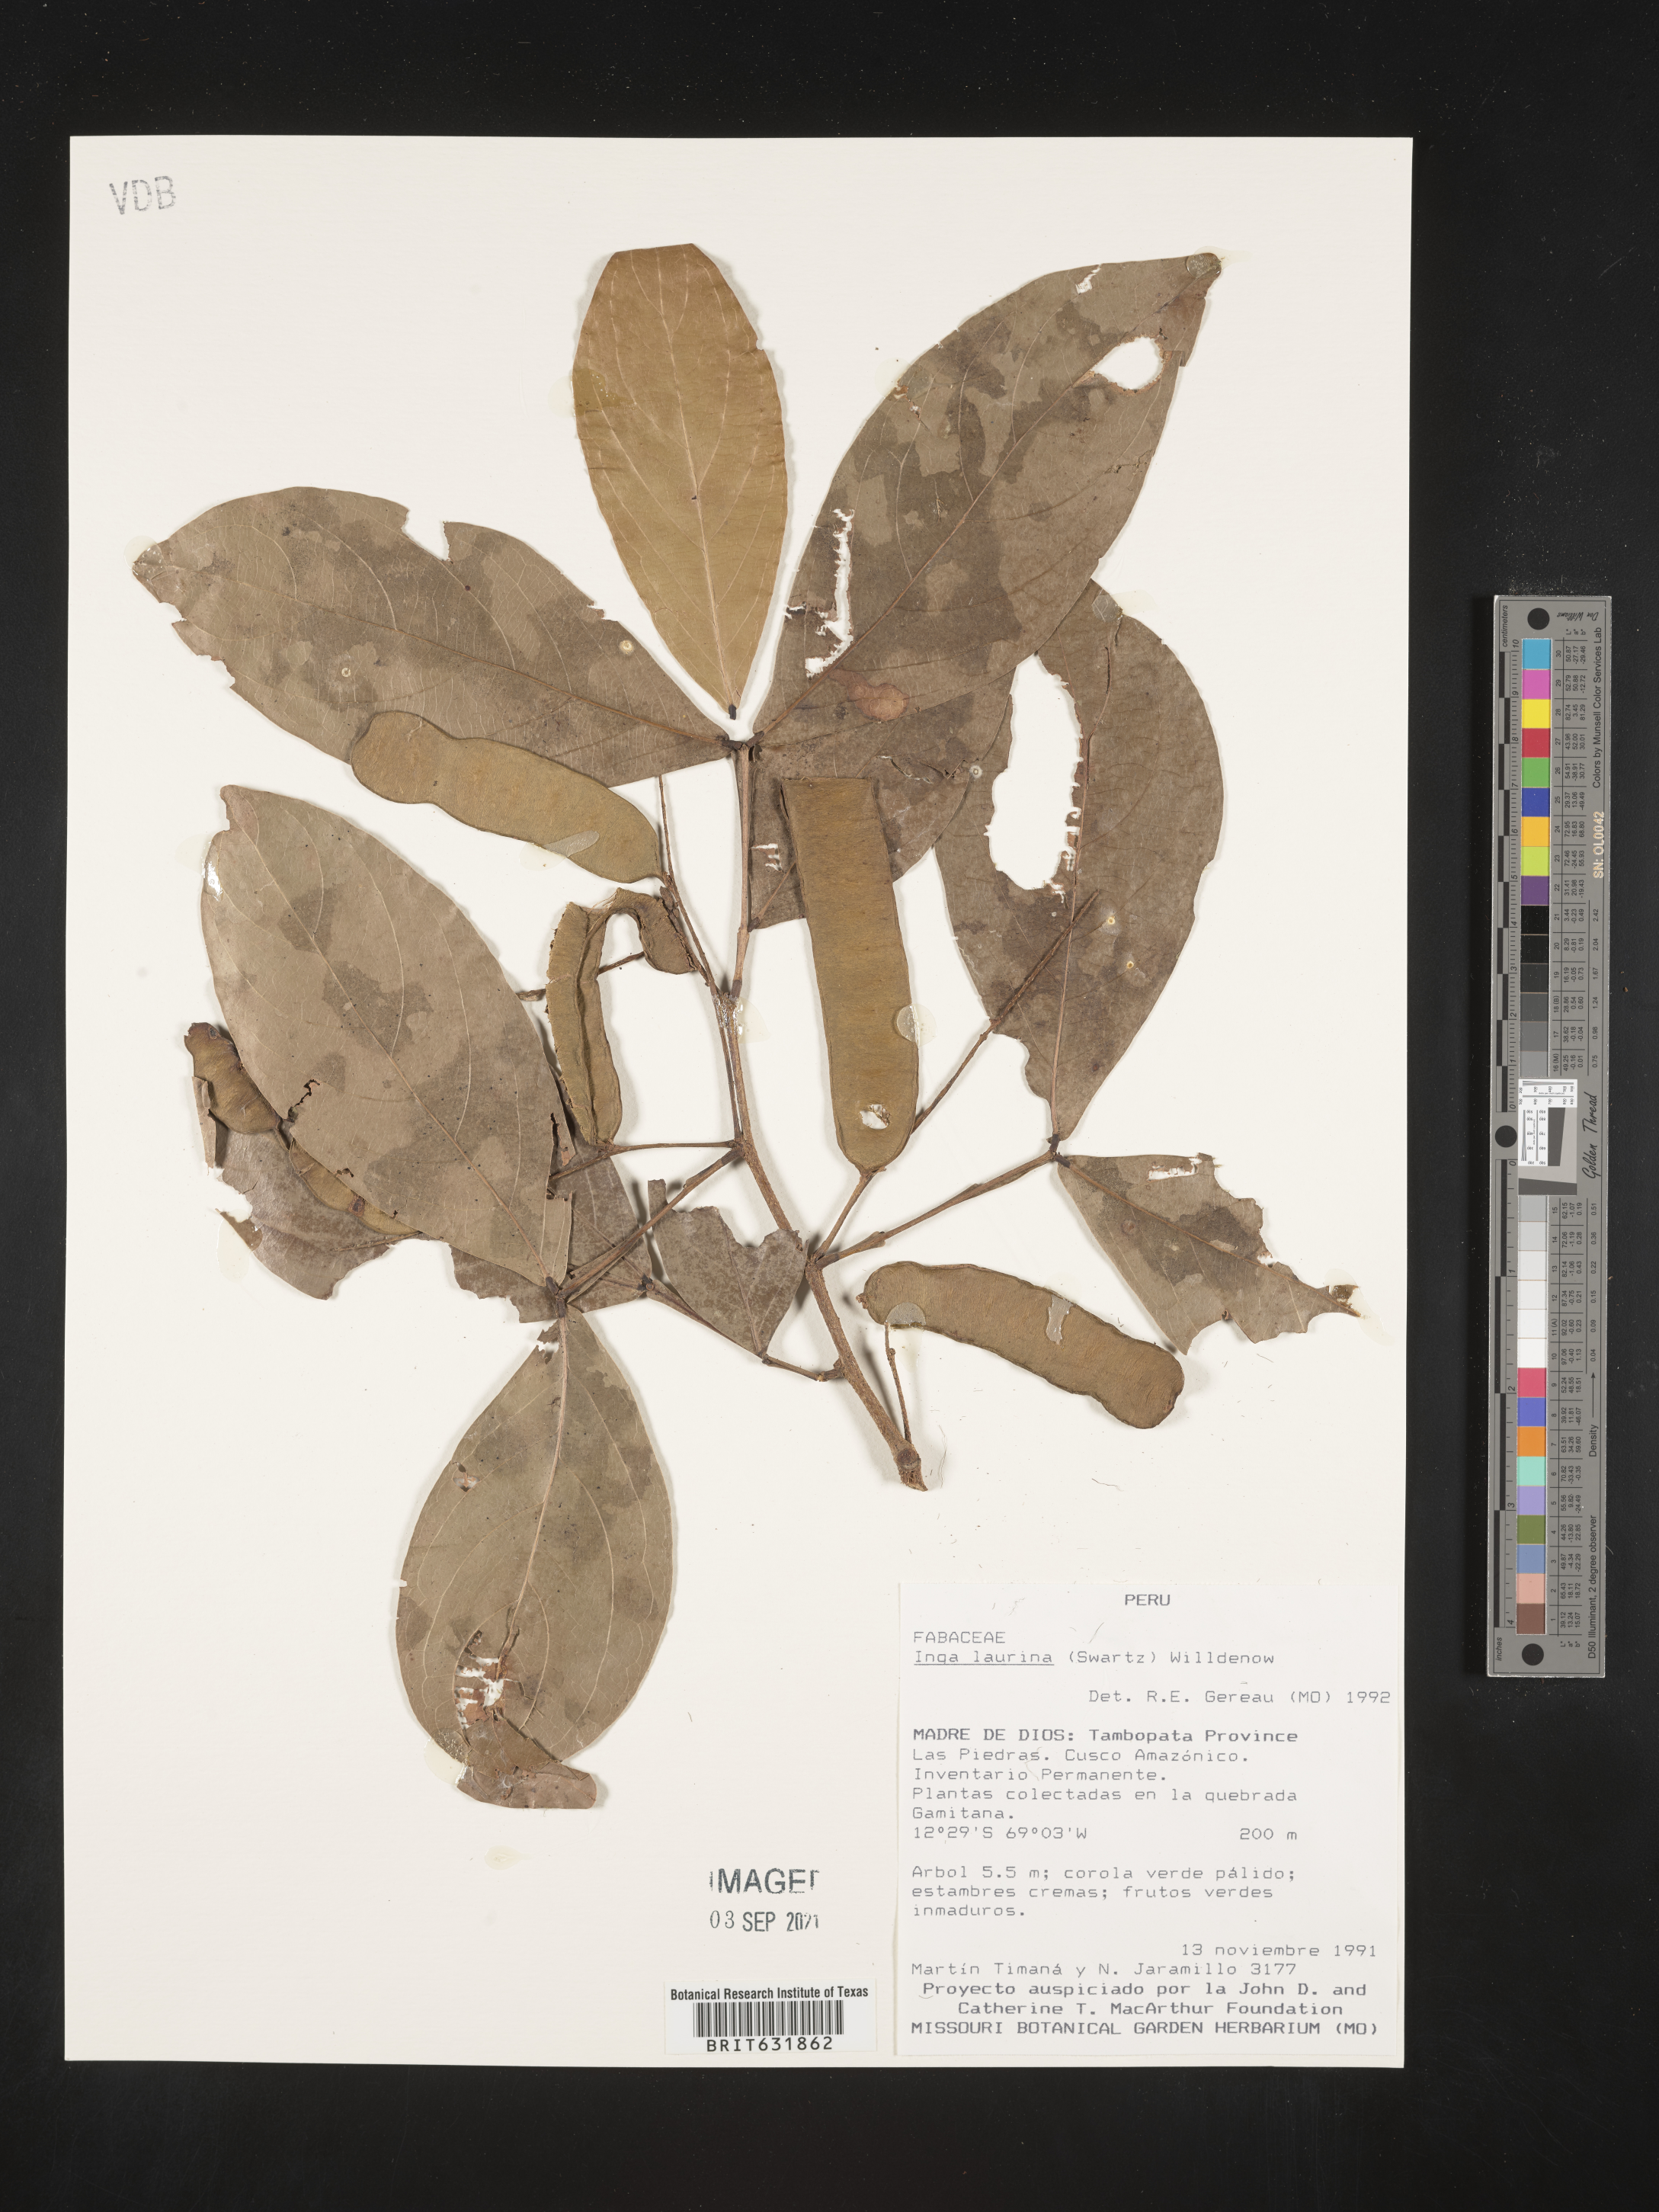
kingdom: Plantae
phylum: Tracheophyta
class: Magnoliopsida
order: Fabales
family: Fabaceae
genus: Inga
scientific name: Inga
